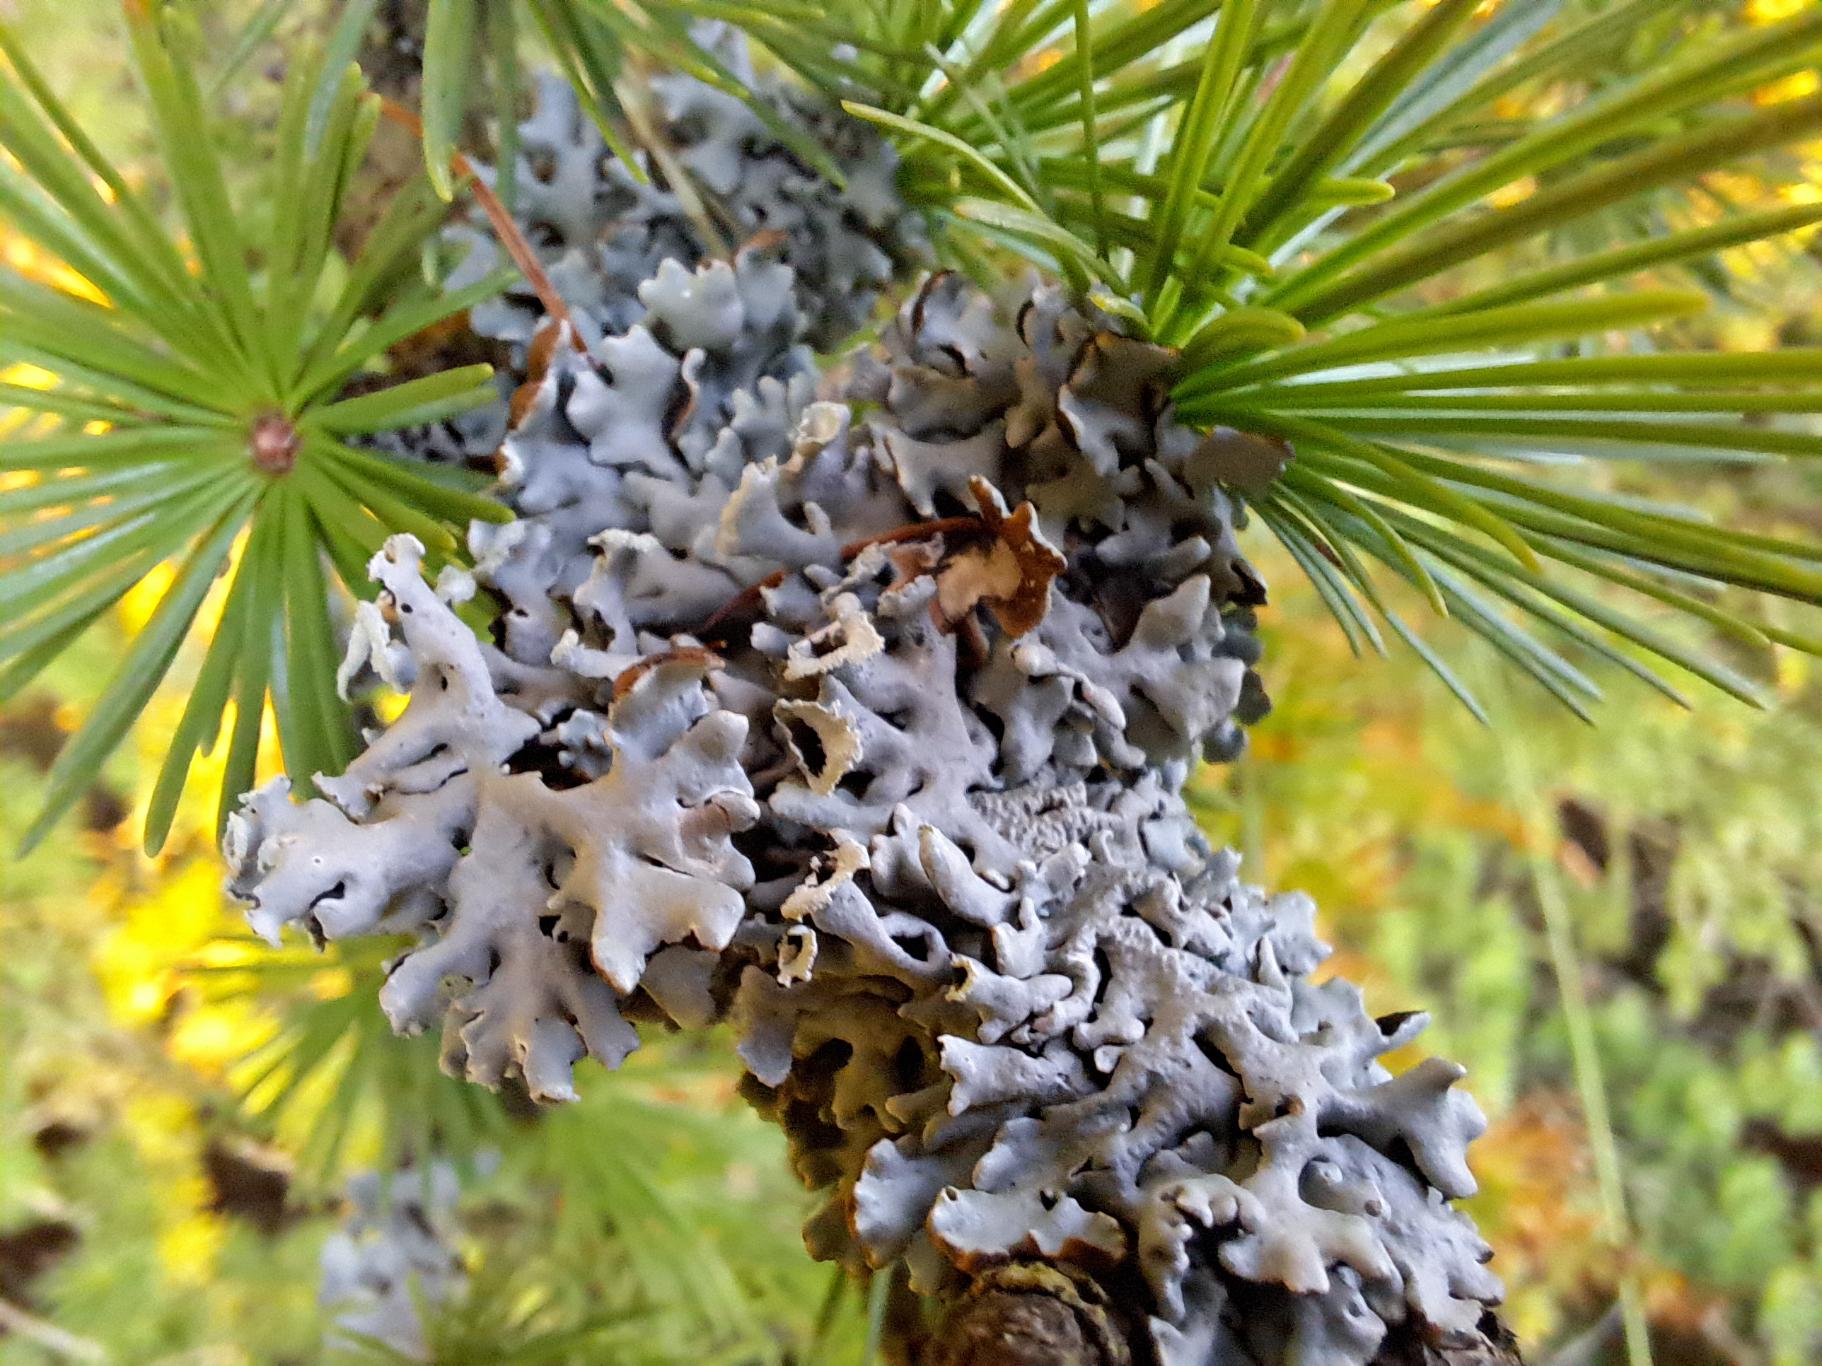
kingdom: Fungi
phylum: Ascomycota
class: Lecanoromycetes
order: Lecanorales
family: Parmeliaceae
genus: Hypogymnia
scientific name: Hypogymnia physodes
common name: Almindelig kvistlav
